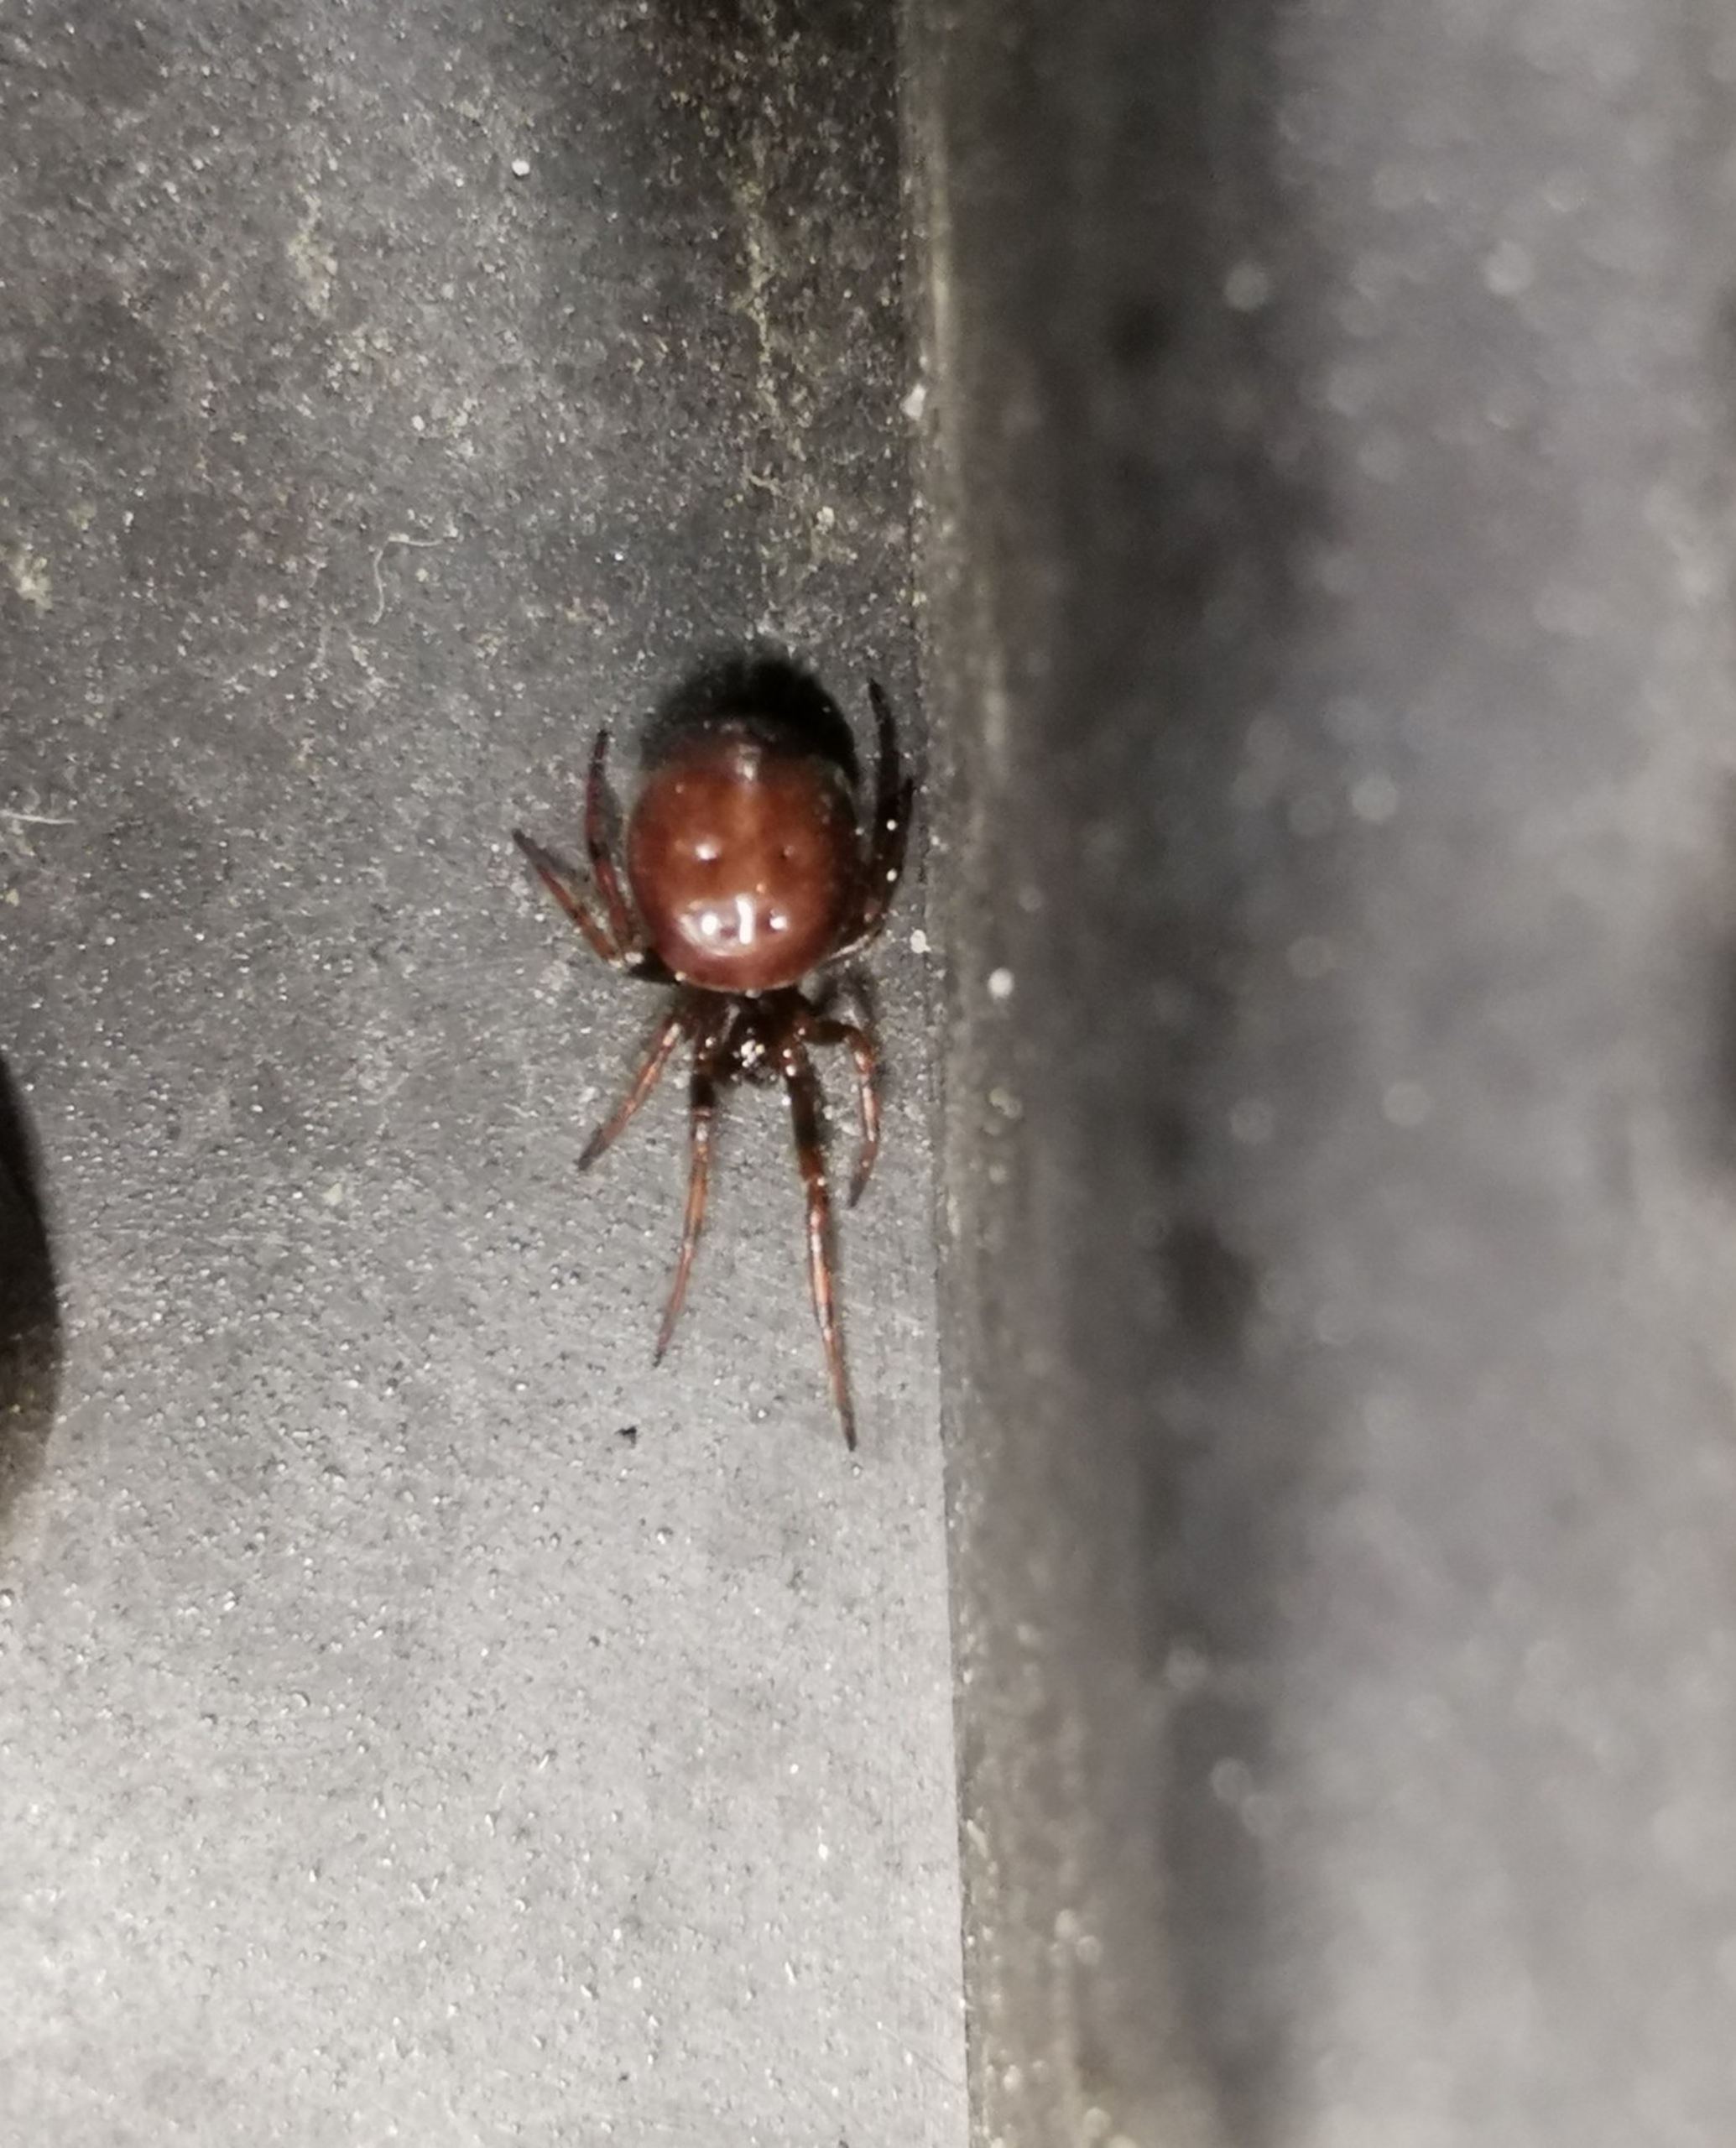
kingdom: Animalia
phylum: Arthropoda
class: Arachnida
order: Araneae
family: Theridiidae
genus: Steatoda
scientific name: Steatoda bipunctata
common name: Fedtedderkop
